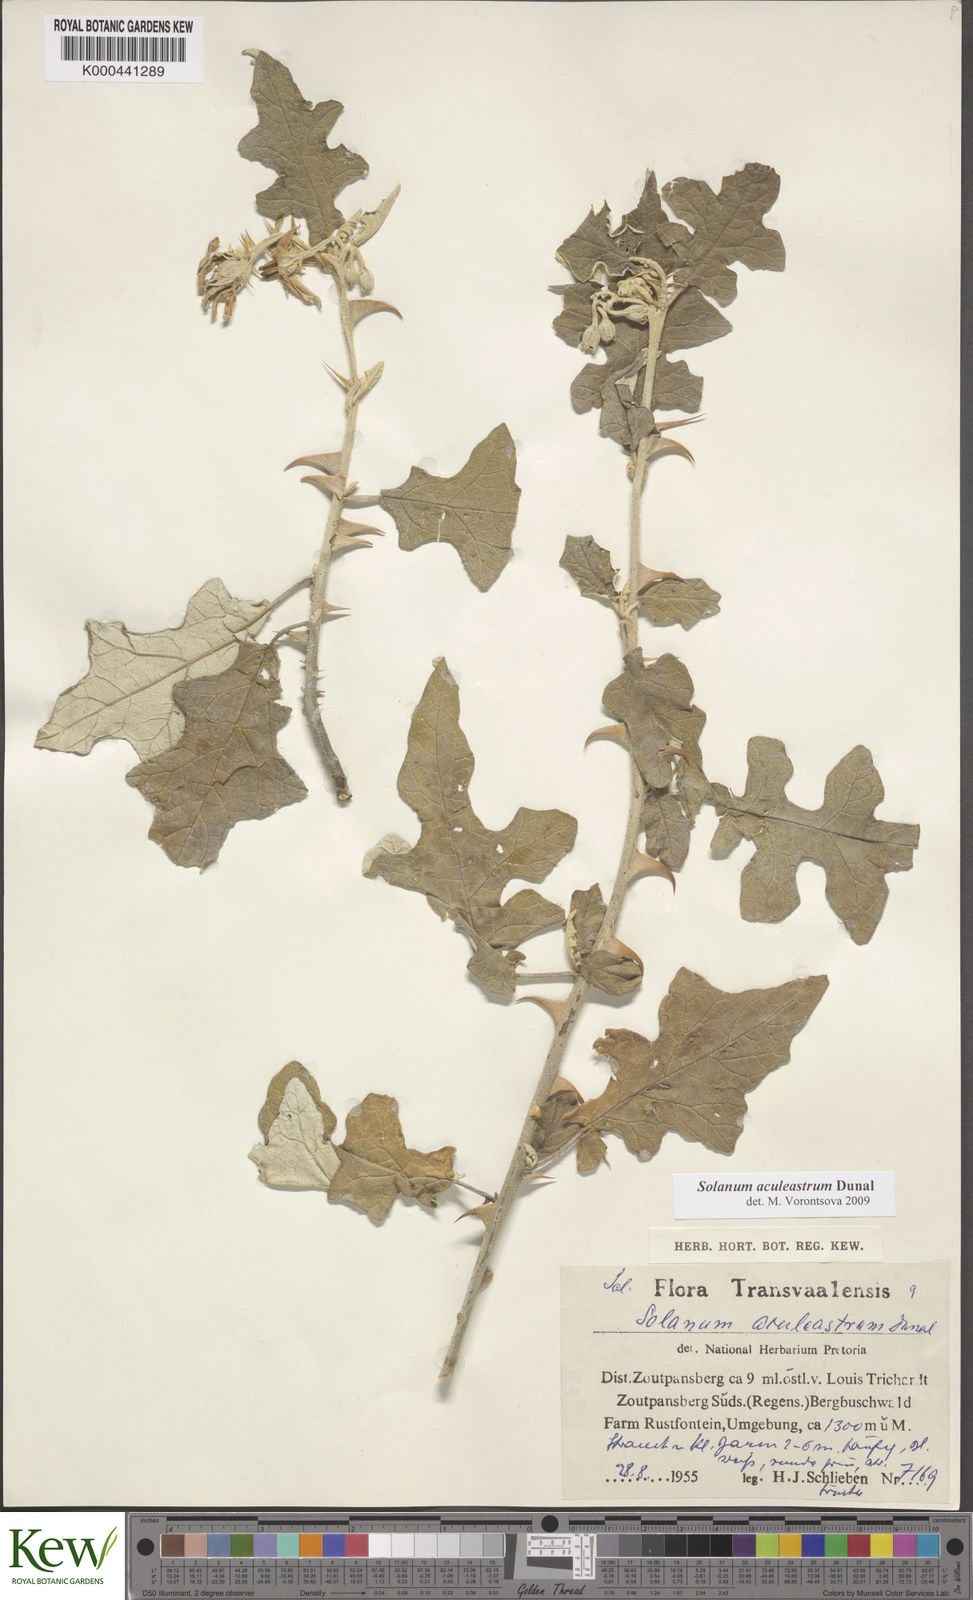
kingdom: Plantae
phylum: Tracheophyta
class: Magnoliopsida
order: Solanales
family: Solanaceae
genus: Solanum
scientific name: Solanum aculeastrum
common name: Goat bitter-apple
